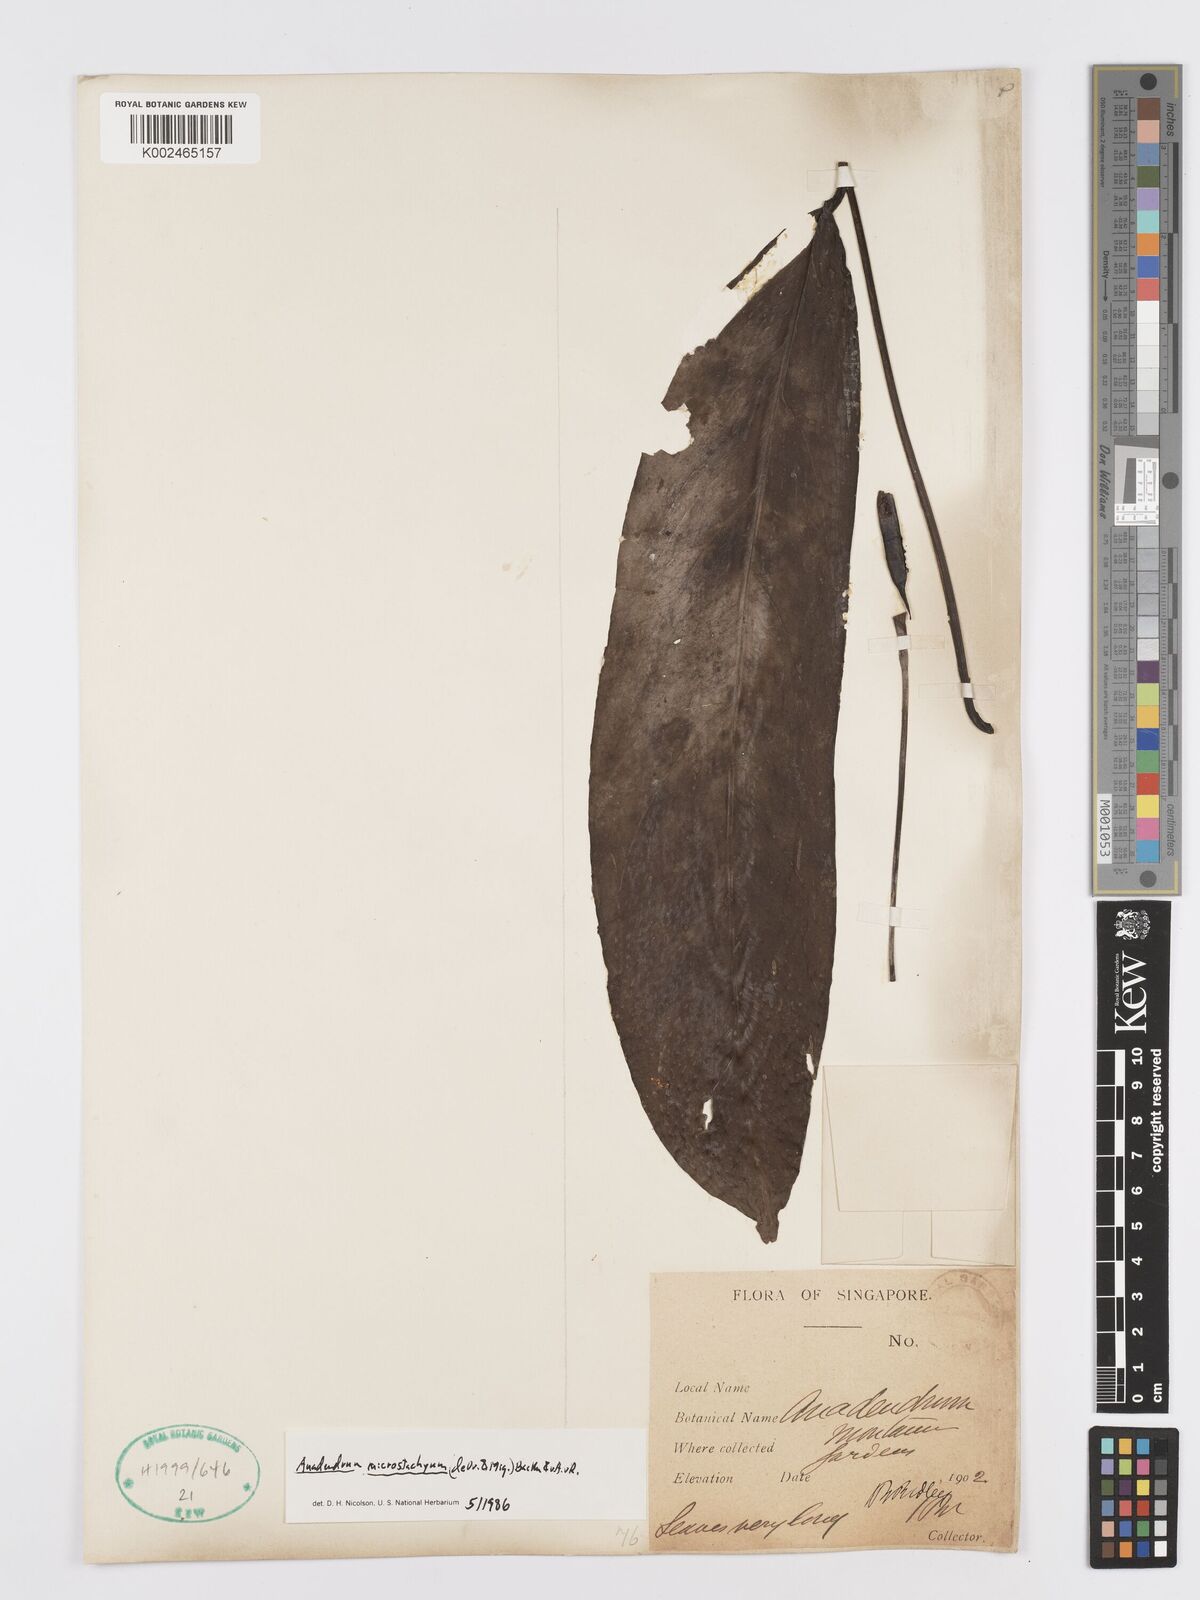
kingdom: Plantae
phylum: Tracheophyta
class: Liliopsida
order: Alismatales
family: Araceae
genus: Anadendrum
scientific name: Anadendrum microstachyum
